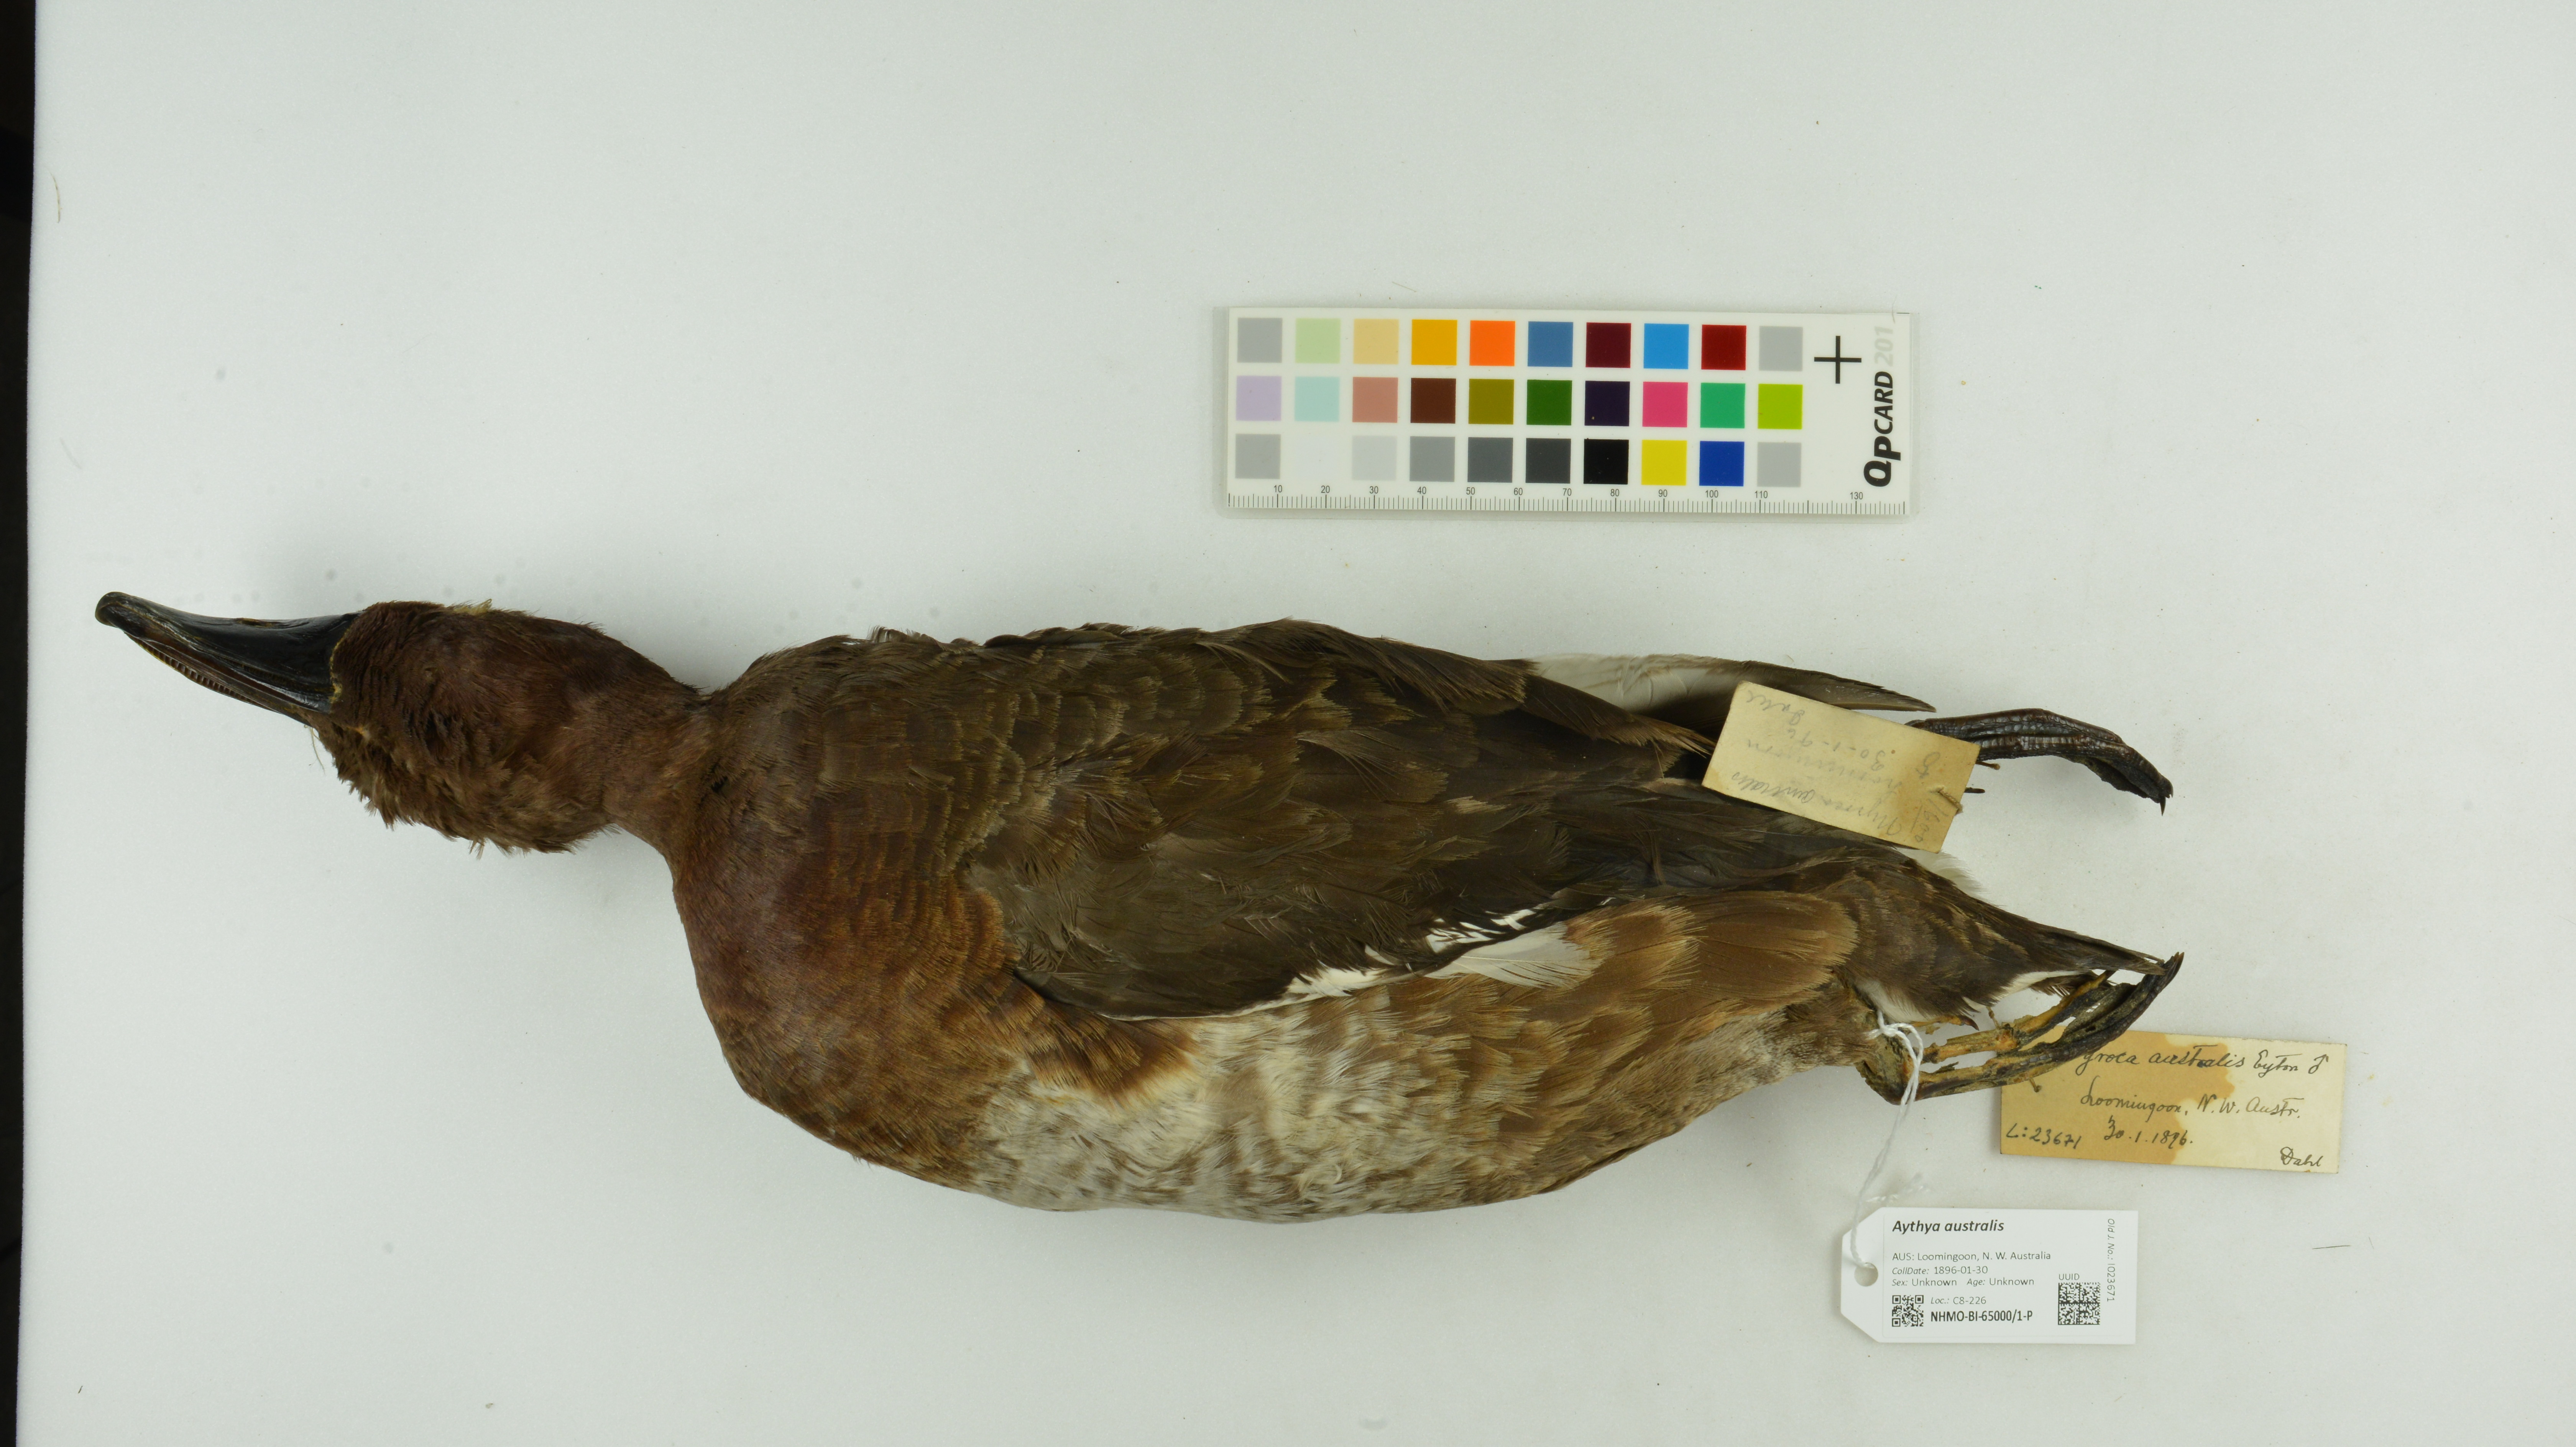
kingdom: Animalia
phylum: Chordata
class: Aves
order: Anseriformes
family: Anatidae
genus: Aythya
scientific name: Aythya australis
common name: Hardhead
